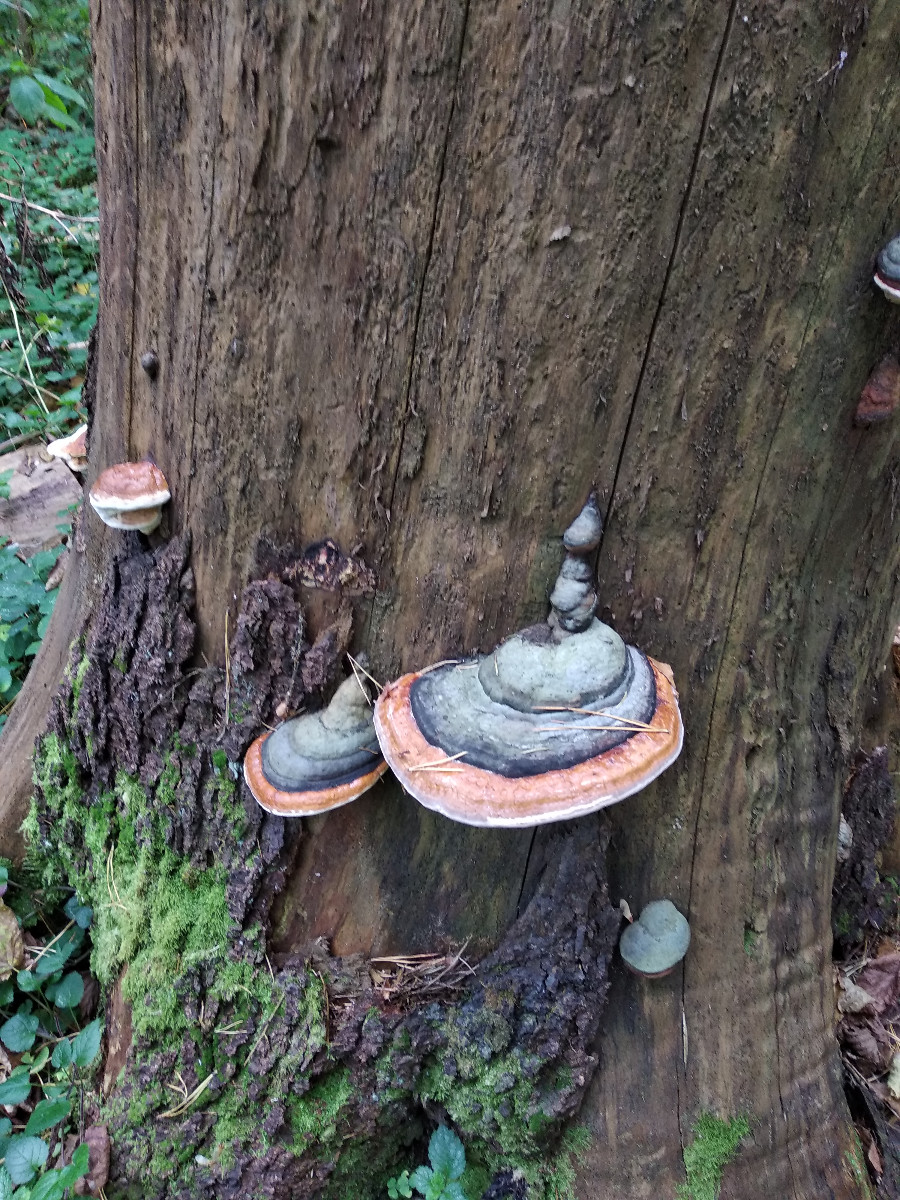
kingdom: Fungi
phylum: Basidiomycota
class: Agaricomycetes
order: Polyporales
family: Fomitopsidaceae
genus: Fomitopsis
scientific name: Fomitopsis pinicola
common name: randbæltet hovporesvamp
